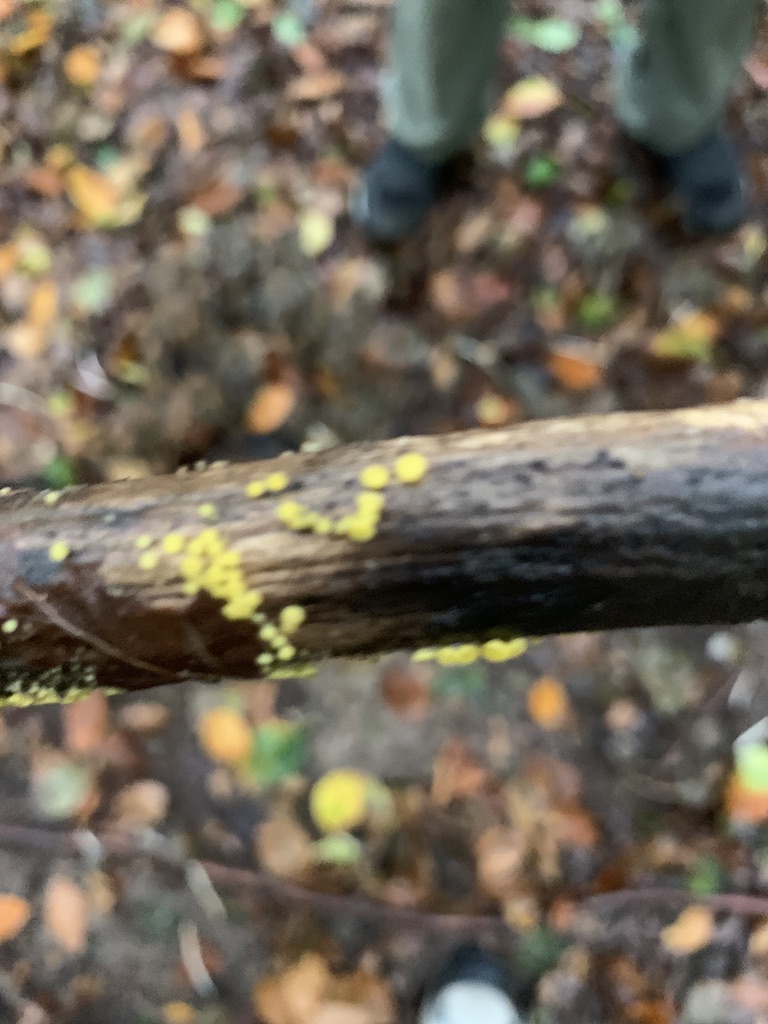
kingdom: Fungi
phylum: Ascomycota
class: Leotiomycetes
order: Helotiales
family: Pezizellaceae
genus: Calycina
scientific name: Calycina citrina
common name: almindelig gulskive
